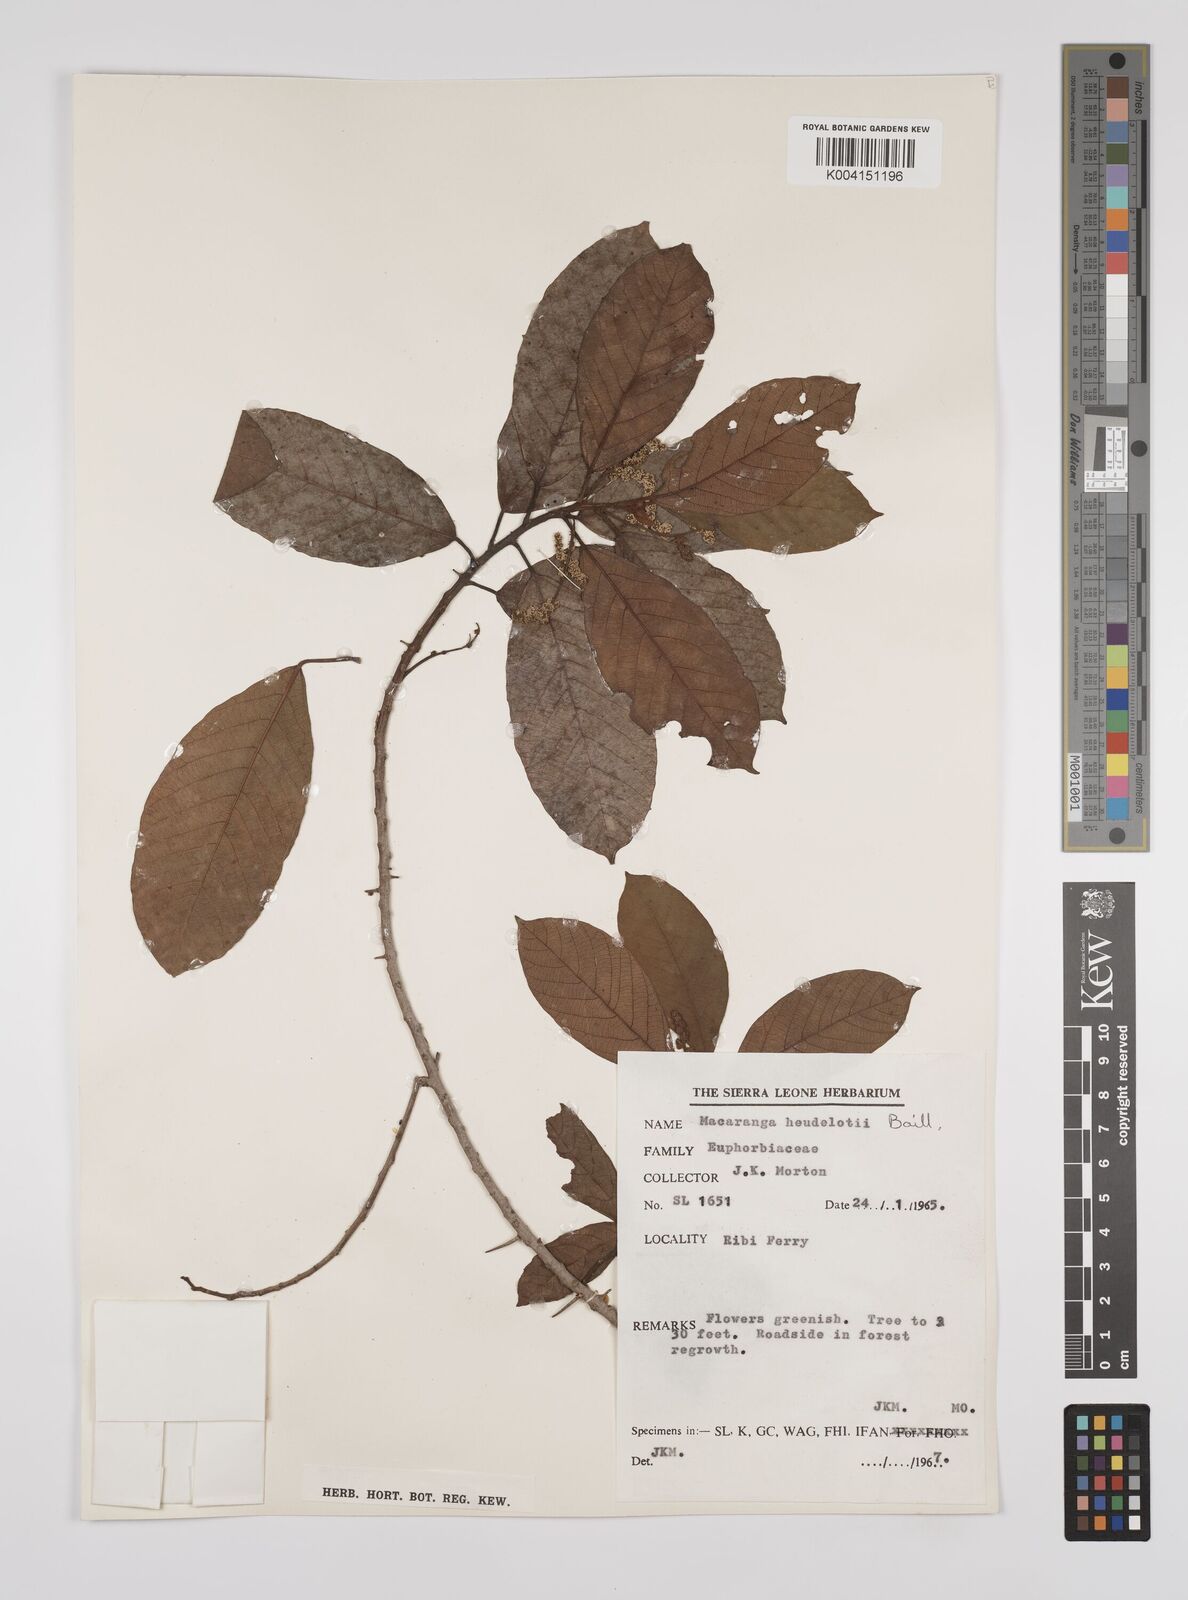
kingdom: Plantae
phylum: Tracheophyta
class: Magnoliopsida
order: Malpighiales
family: Euphorbiaceae
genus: Macaranga
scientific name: Macaranga heudelotii
